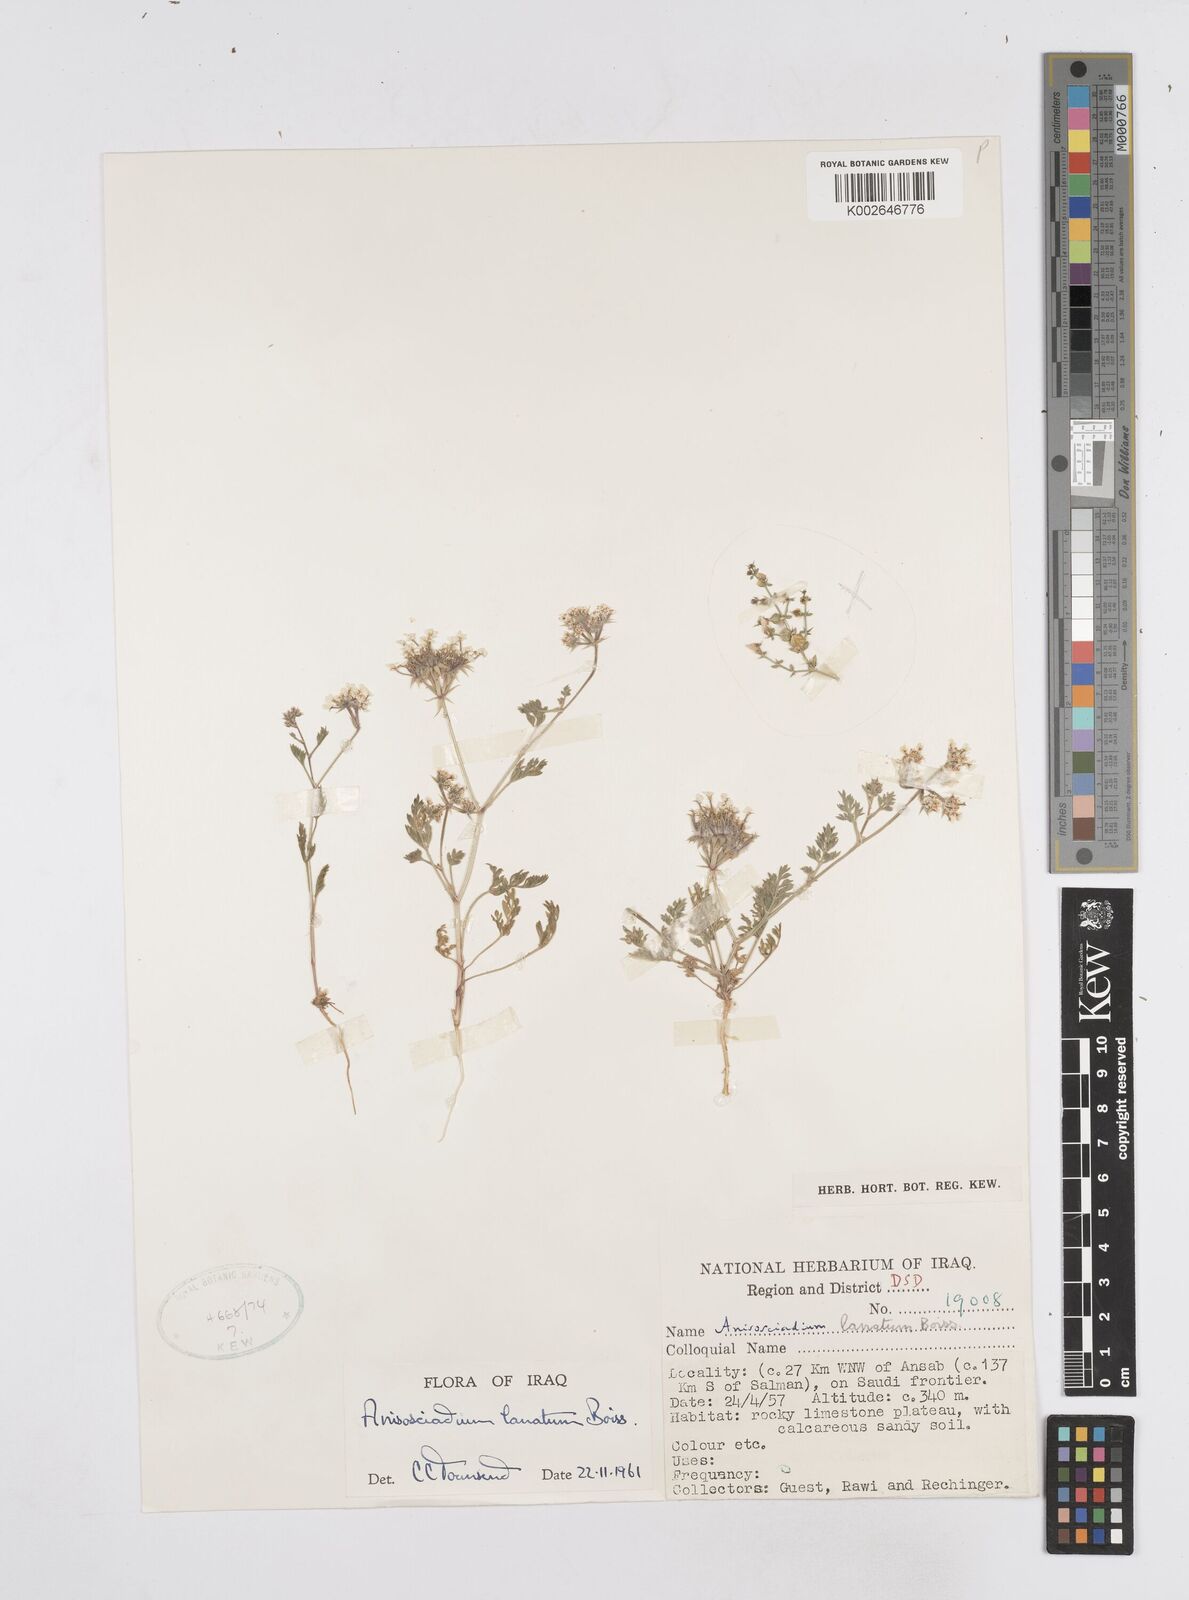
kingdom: Plantae
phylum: Tracheophyta
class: Magnoliopsida
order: Apiales
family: Apiaceae
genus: Anisosciadium
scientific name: Anisosciadium lanatum
